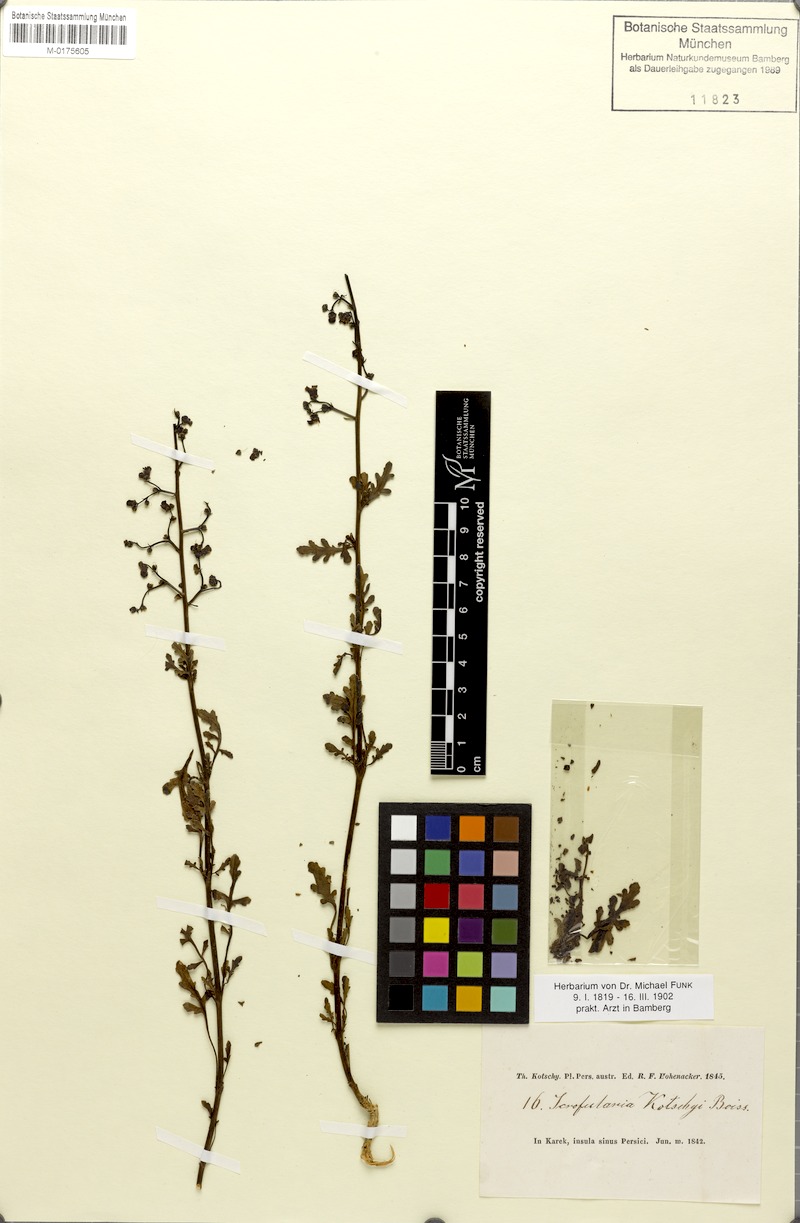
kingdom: Plantae
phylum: Tracheophyta
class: Magnoliopsida
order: Lamiales
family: Scrophulariaceae
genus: Scrophularia
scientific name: Scrophularia dentata
